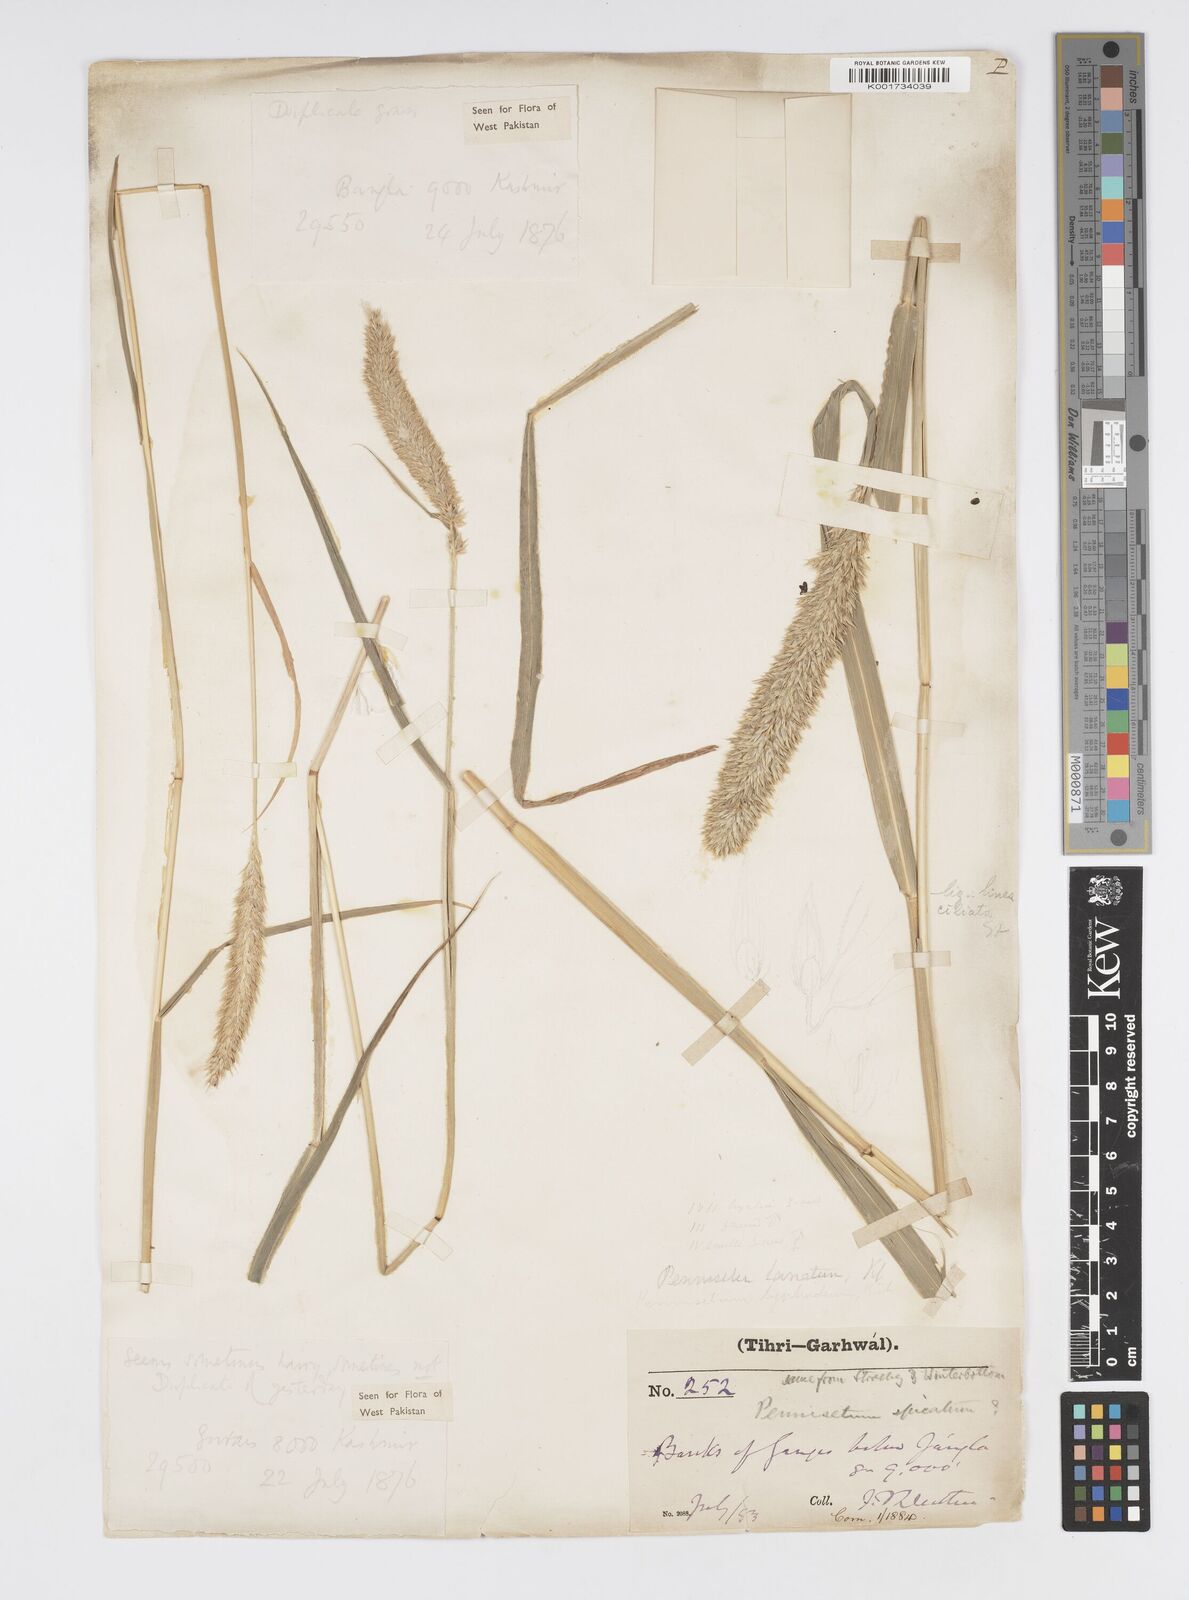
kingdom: Plantae
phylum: Tracheophyta
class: Liliopsida
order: Poales
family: Poaceae
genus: Cenchrus
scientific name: Cenchrus lanatus
